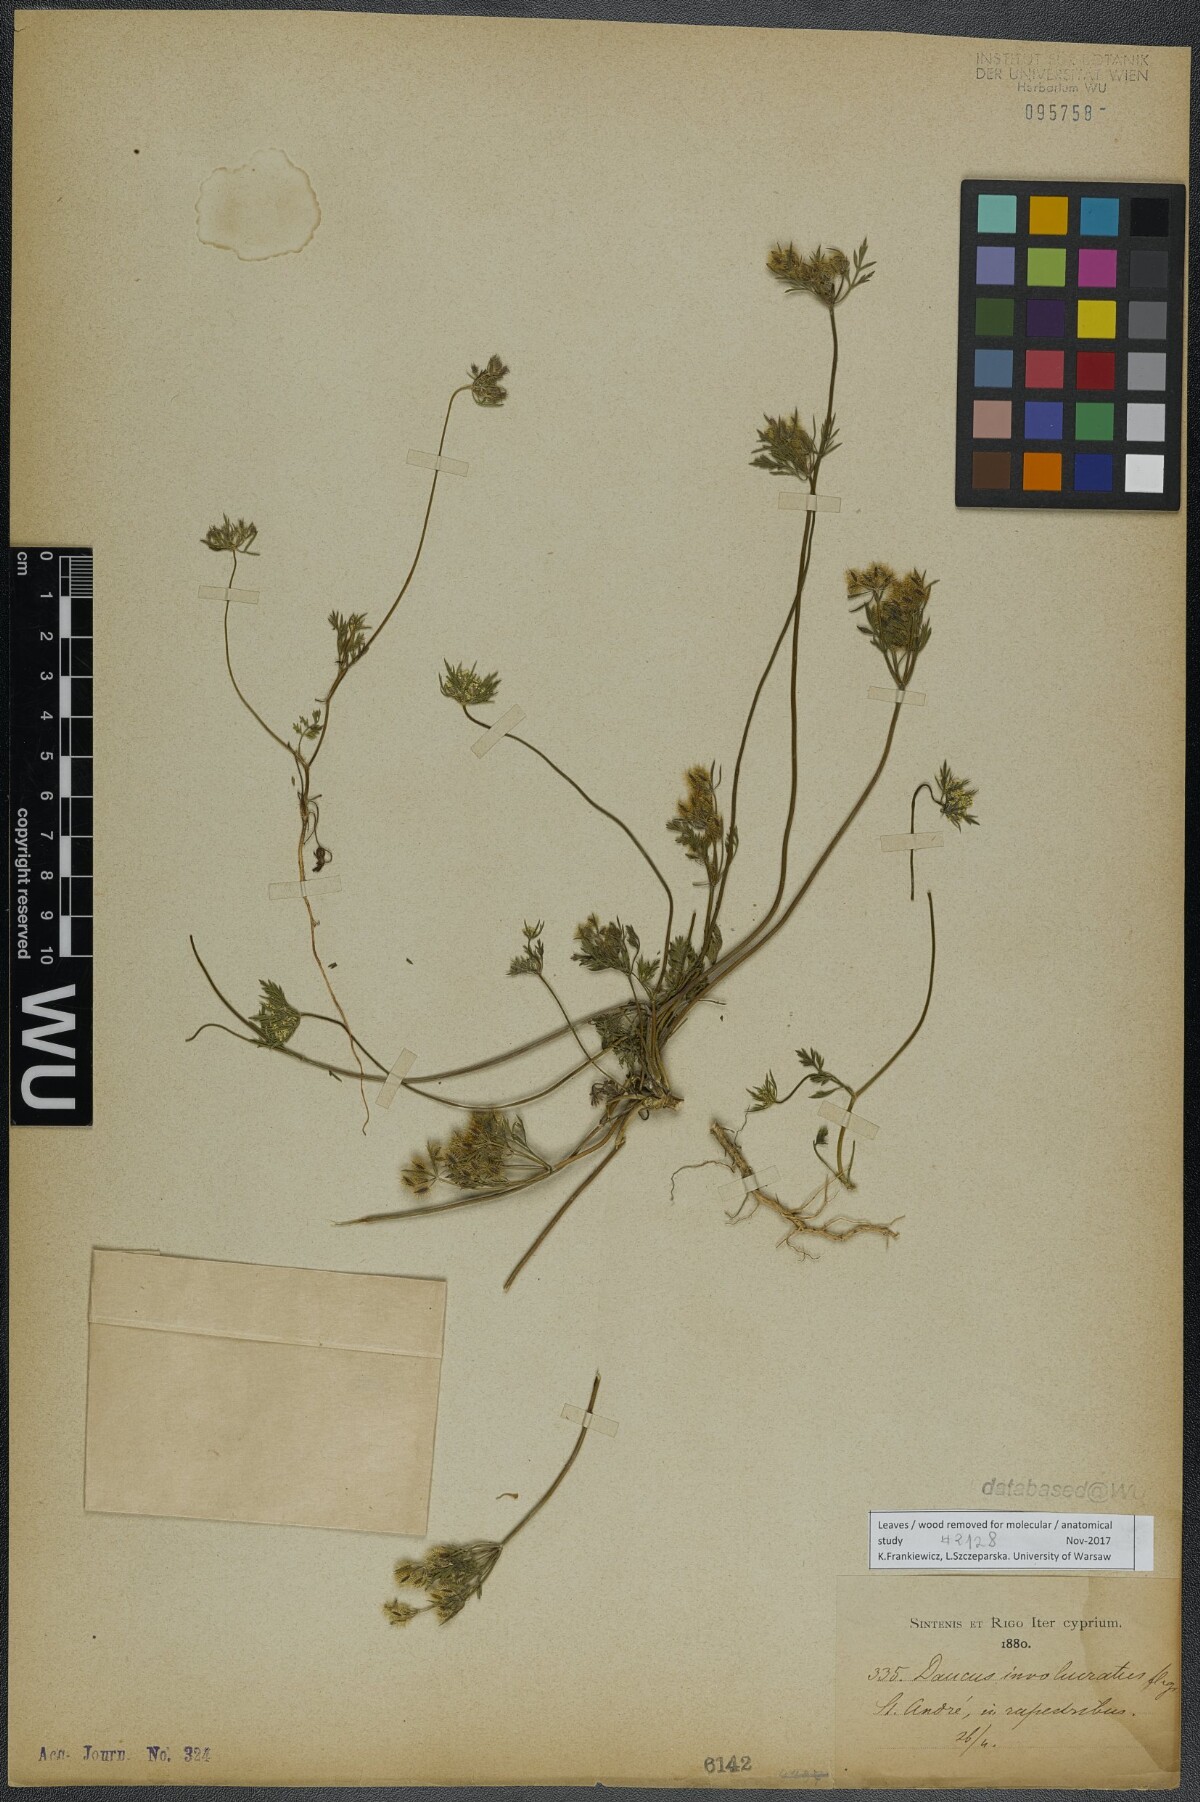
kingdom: Plantae
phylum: Tracheophyta
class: Magnoliopsida
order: Apiales
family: Apiaceae
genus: Daucus
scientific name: Daucus involucratus
